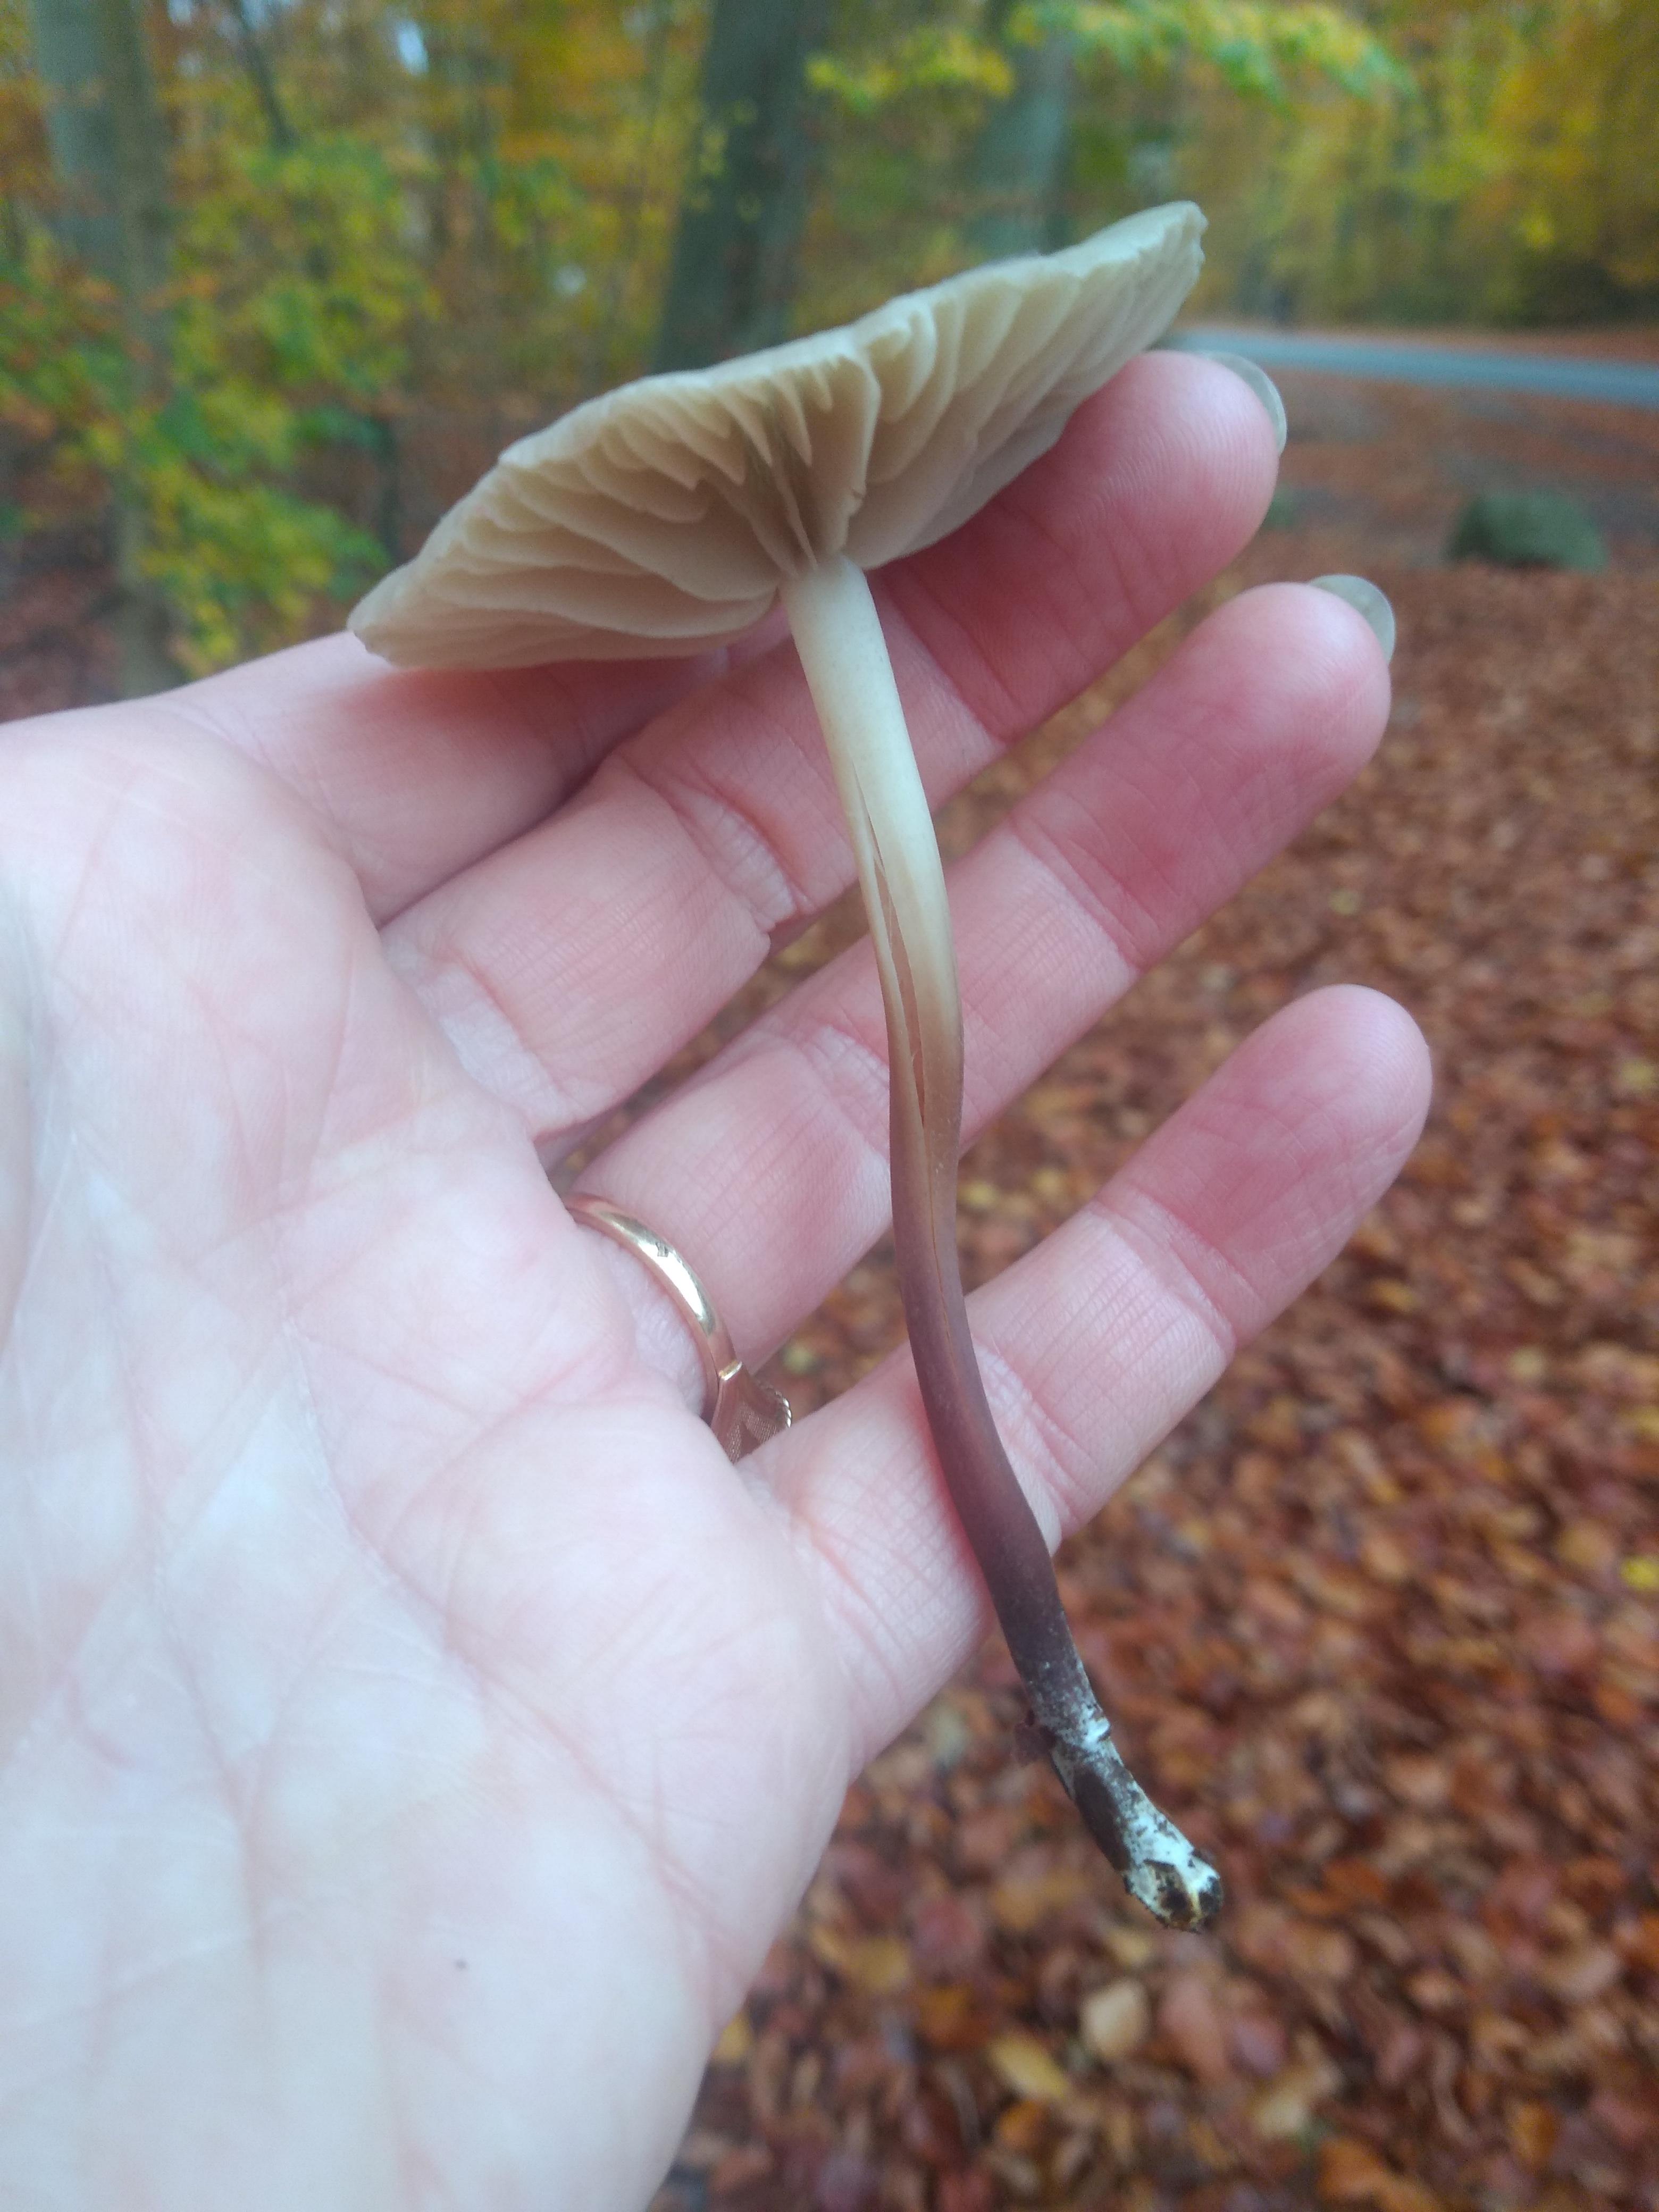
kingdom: Fungi
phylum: Basidiomycota
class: Agaricomycetes
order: Agaricales
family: Marasmiaceae
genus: Marasmius
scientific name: Marasmius wynneae
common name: hvælvet bruskhat
